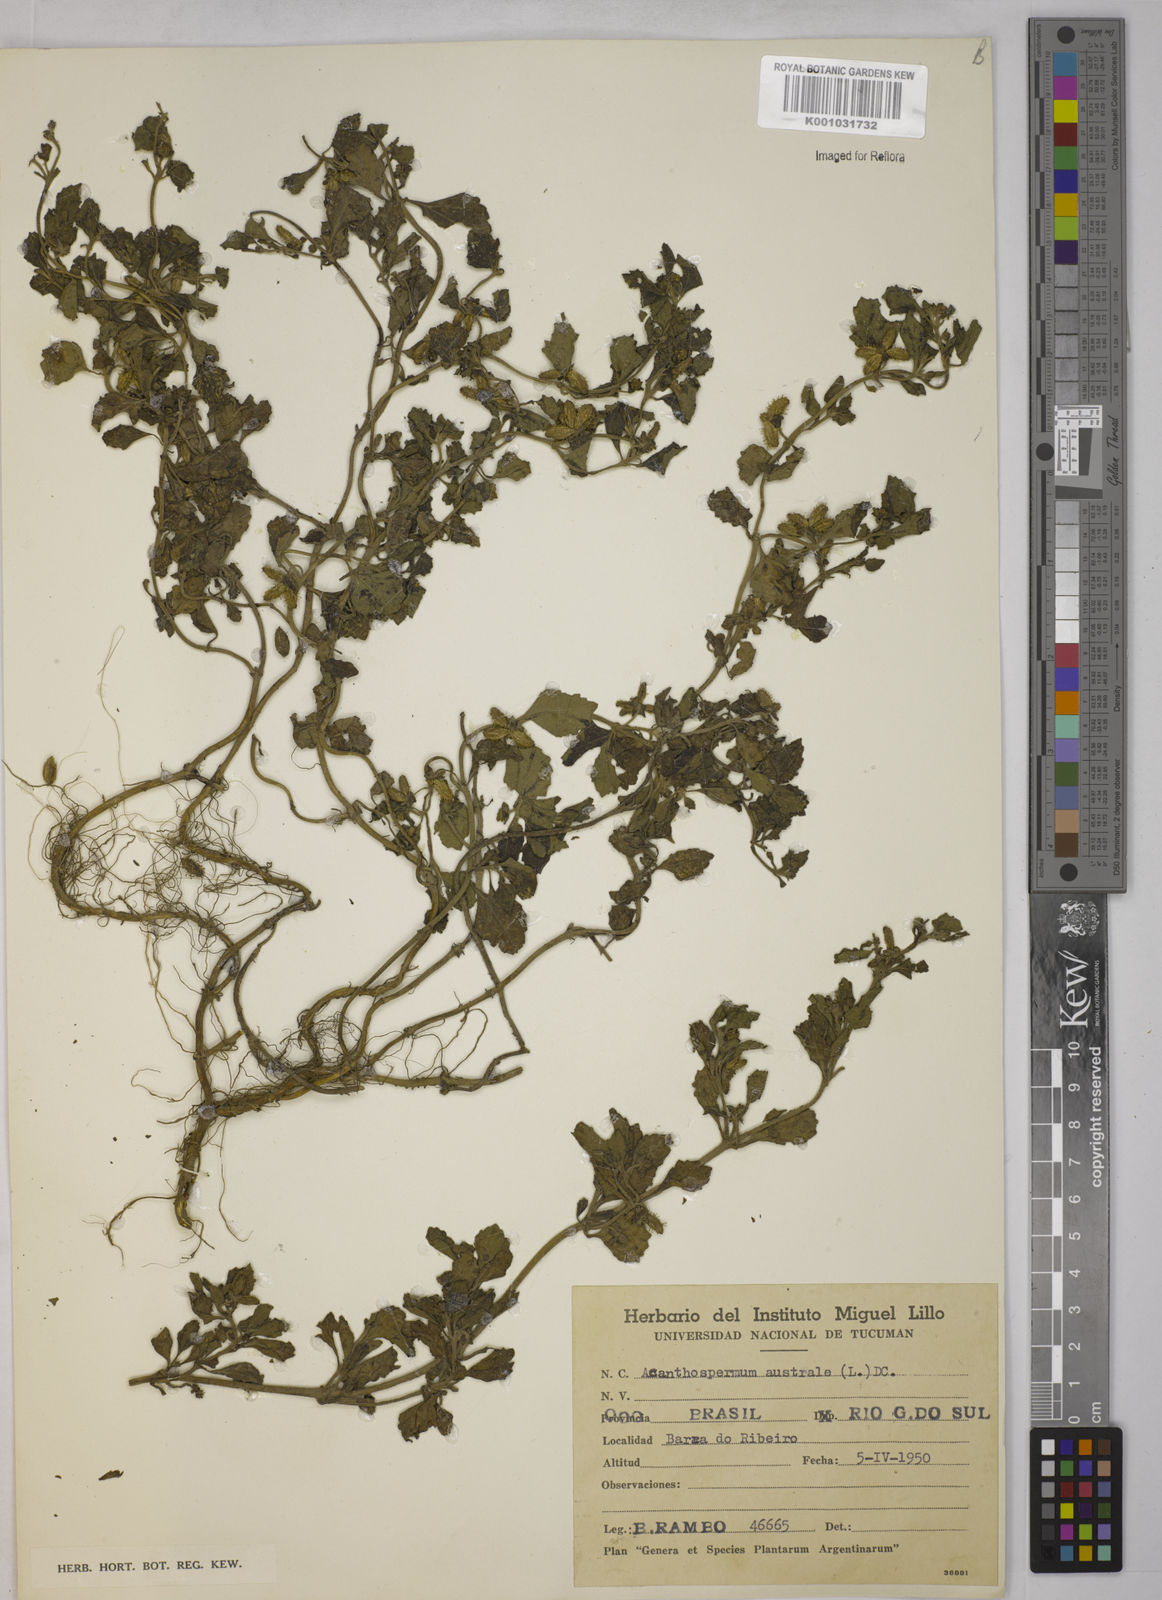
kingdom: Plantae
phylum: Tracheophyta
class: Magnoliopsida
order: Asterales
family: Asteraceae
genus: Acanthospermum
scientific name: Acanthospermum australe
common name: Paraguayan starbur
